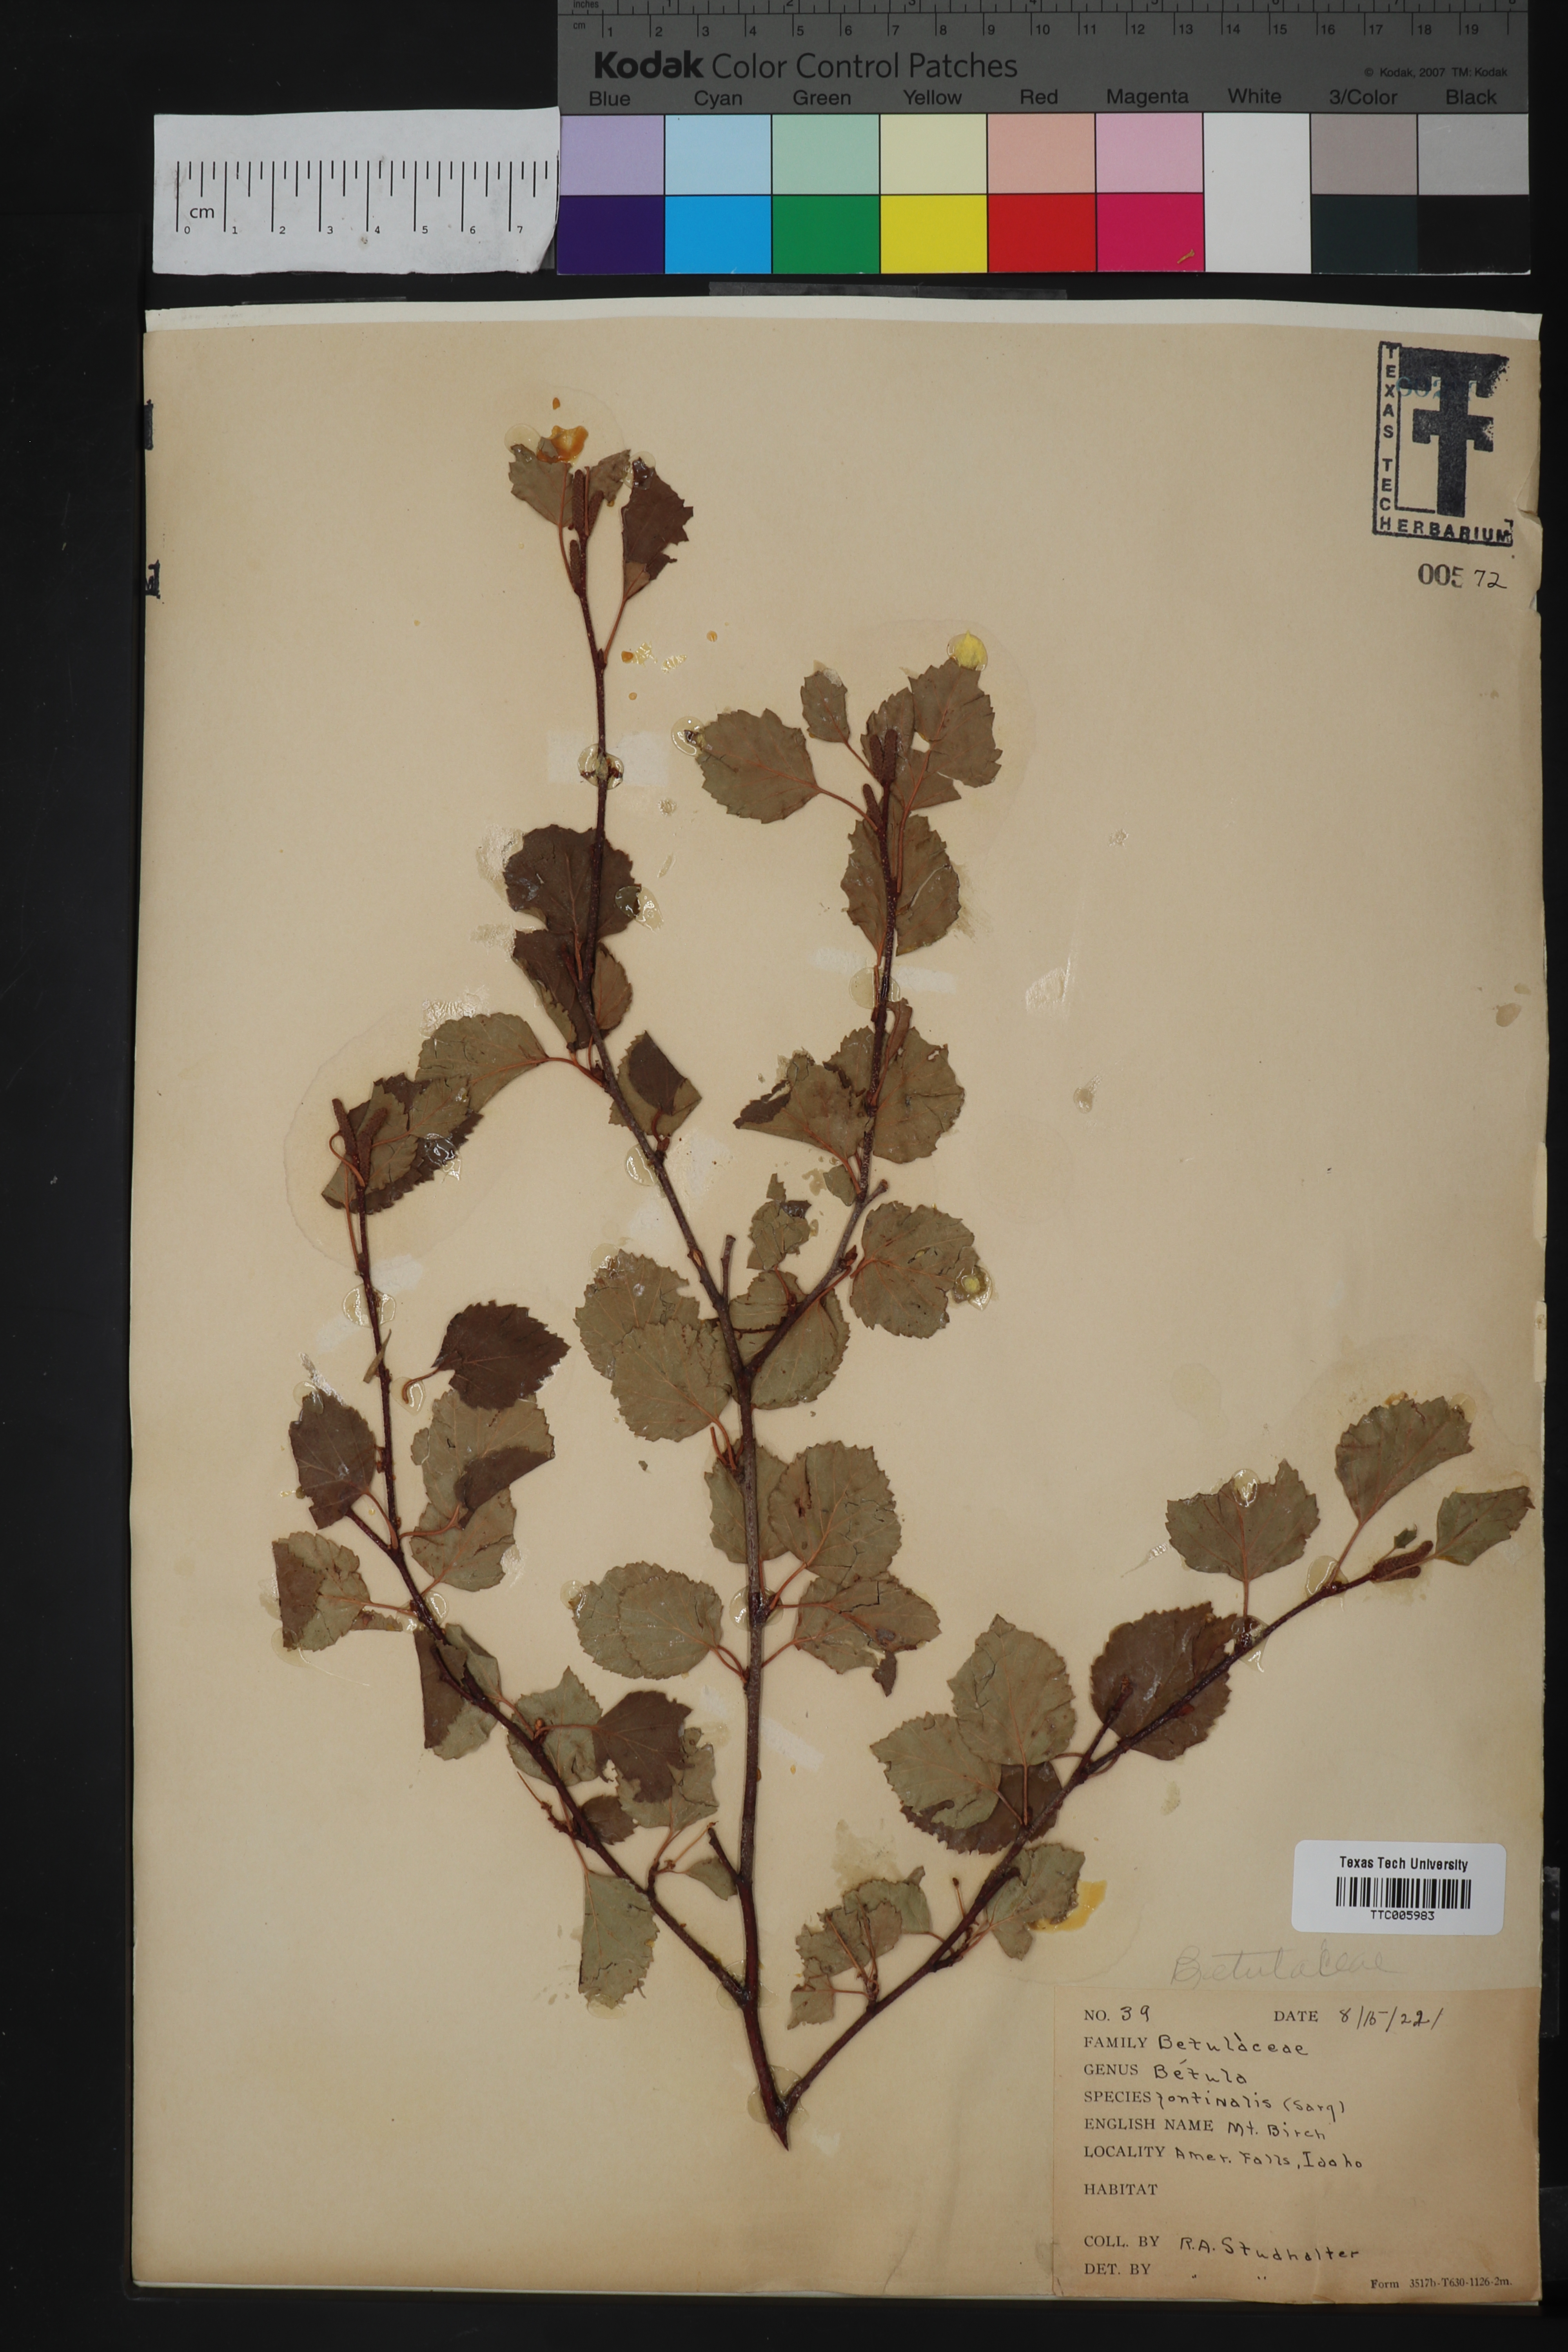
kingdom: Plantae
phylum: Tracheophyta
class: Magnoliopsida
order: Fagales
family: Betulaceae
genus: Betula
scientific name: Betula occidentalis
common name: River birch
